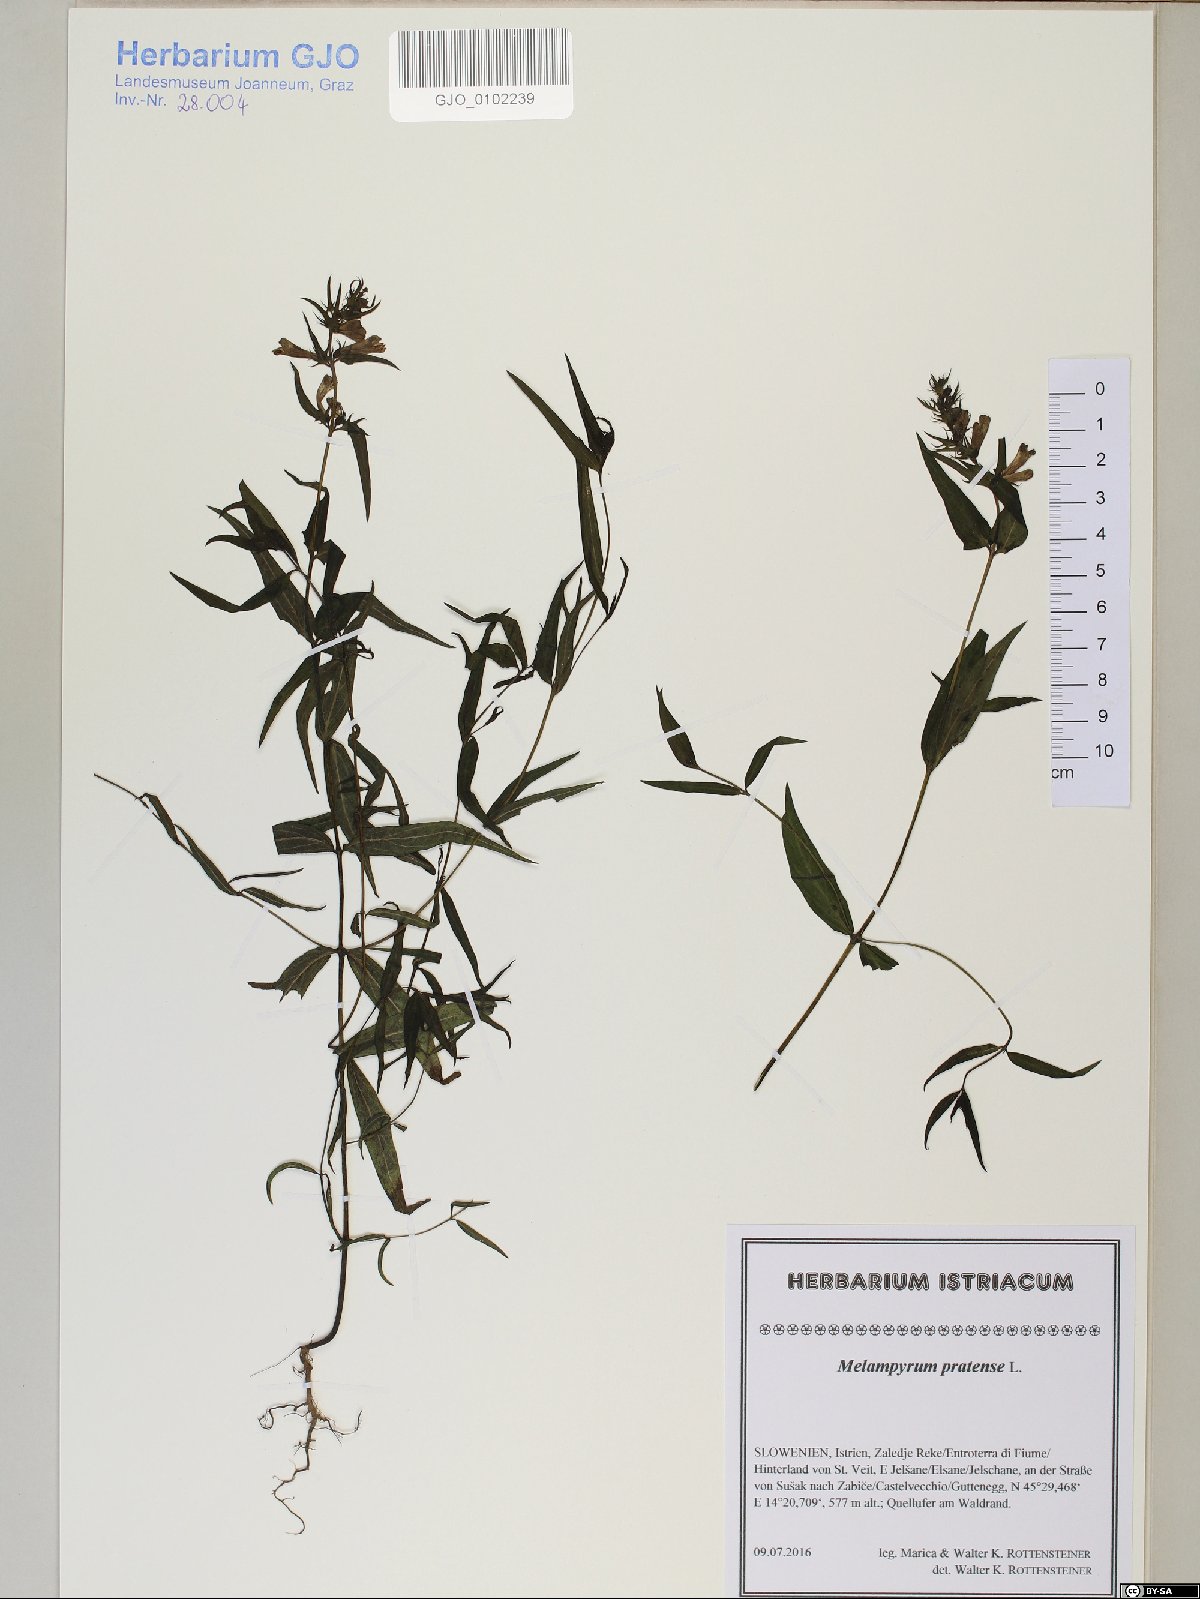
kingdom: Plantae
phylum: Tracheophyta
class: Magnoliopsida
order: Lamiales
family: Orobanchaceae
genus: Melampyrum
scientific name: Melampyrum pratense
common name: Common cow-wheat
